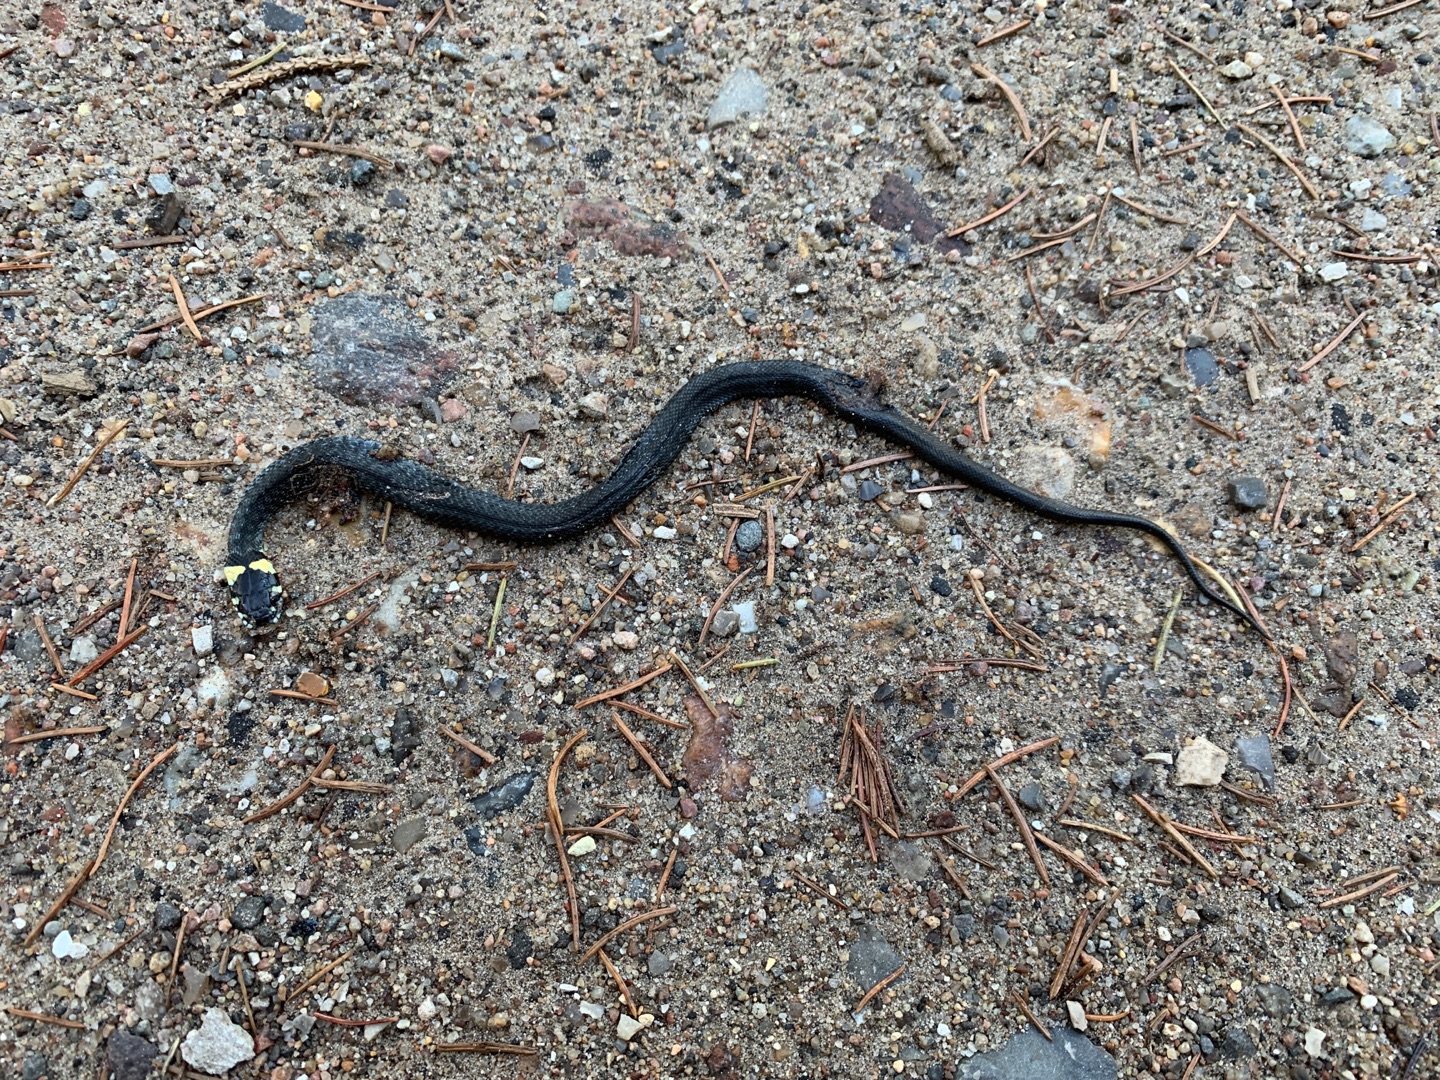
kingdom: Animalia
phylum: Chordata
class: Squamata
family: Colubridae
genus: Natrix
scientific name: Natrix natrix
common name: Snog
